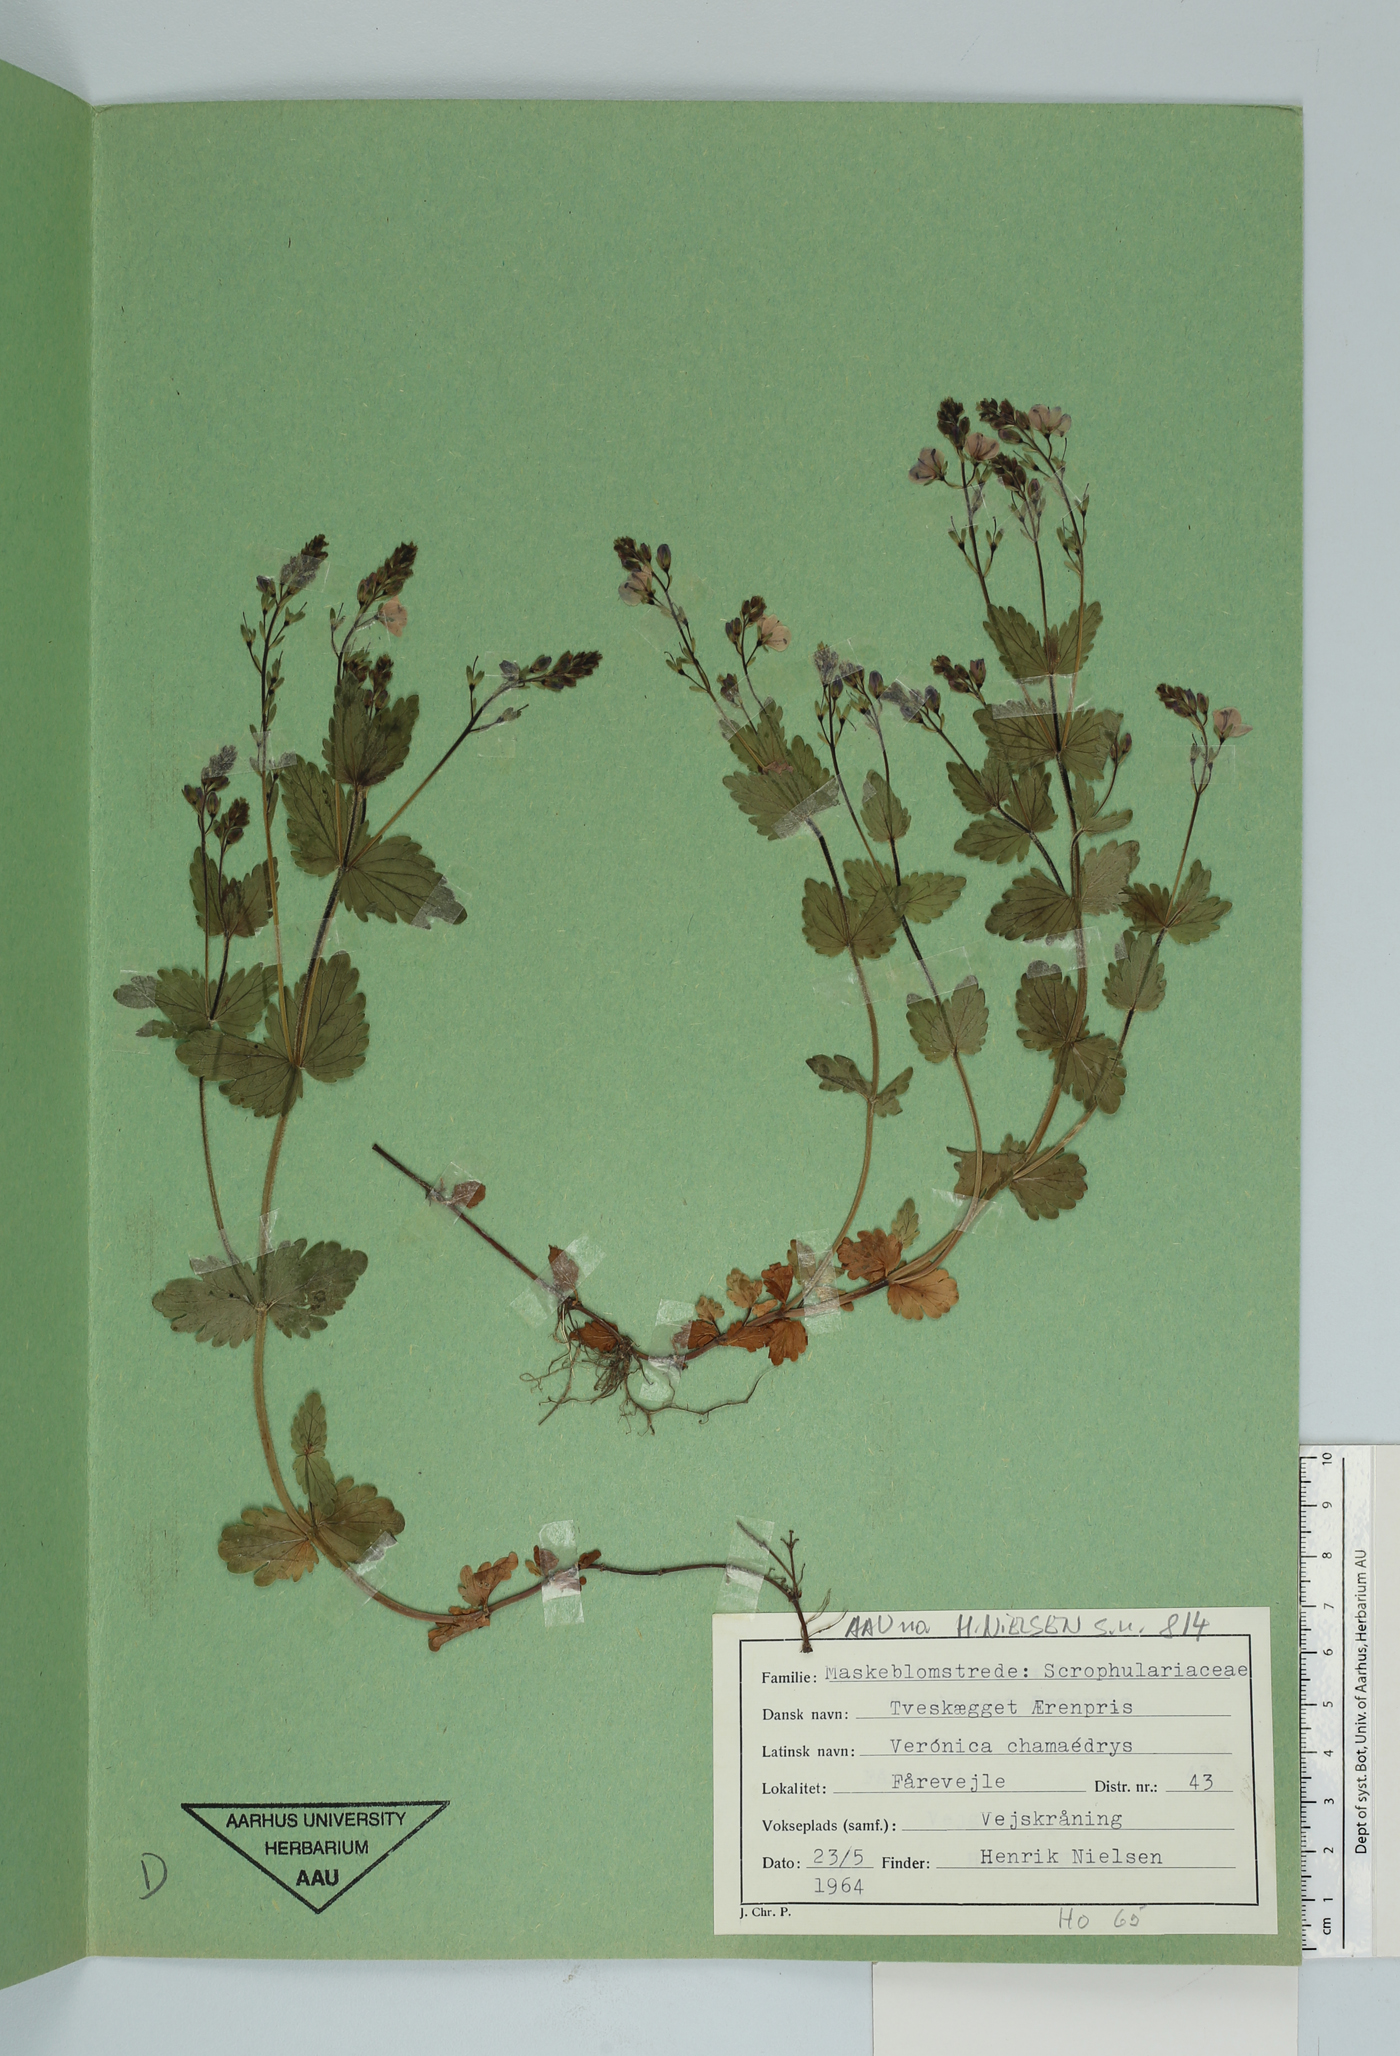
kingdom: Plantae
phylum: Tracheophyta
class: Magnoliopsida
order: Lamiales
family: Plantaginaceae
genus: Veronica
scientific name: Veronica chamaedrys
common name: Germander speedwell
